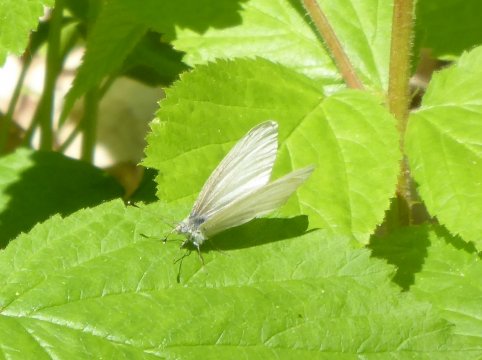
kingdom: Animalia
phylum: Arthropoda
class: Insecta
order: Lepidoptera
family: Pieridae
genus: Pieris
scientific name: Pieris virginiensis
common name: West Virginia White
